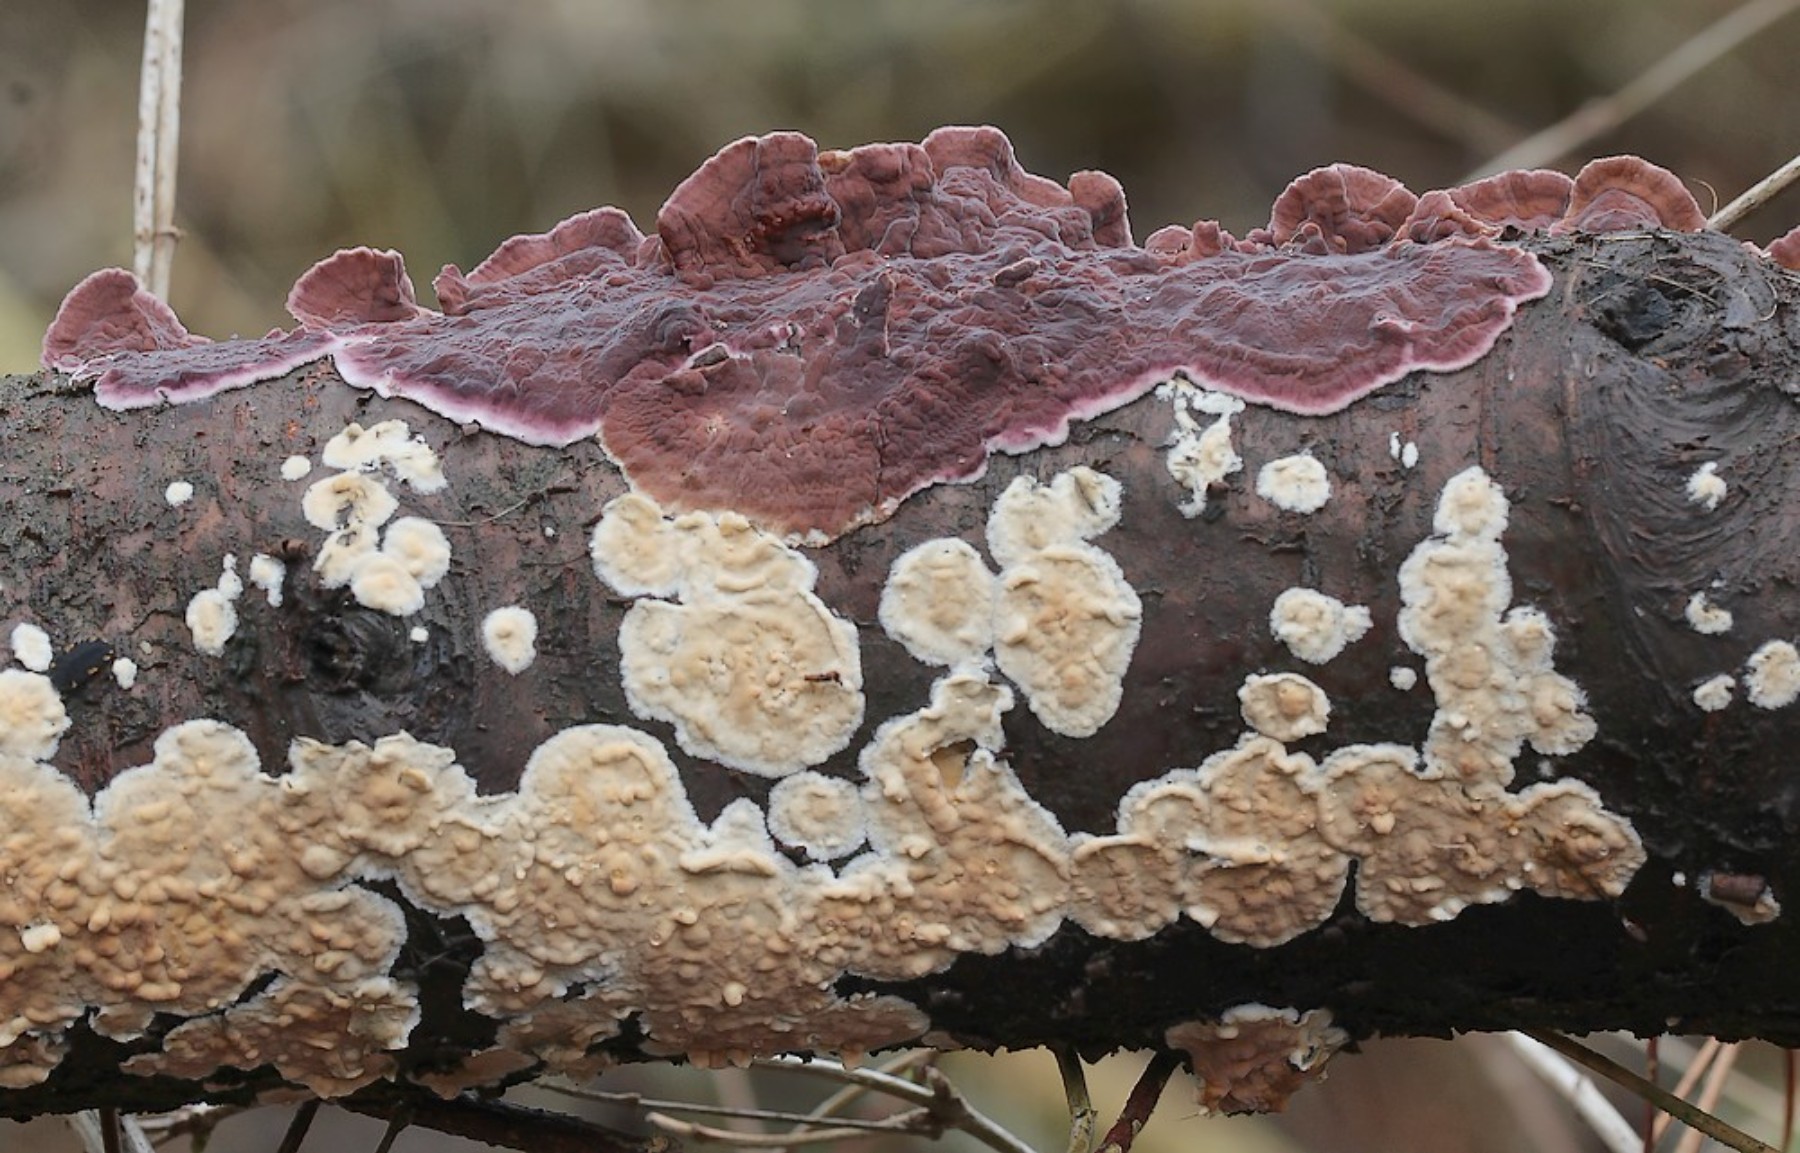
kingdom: Fungi
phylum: Basidiomycota
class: Agaricomycetes
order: Agaricales
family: Cyphellaceae
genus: Chondrostereum
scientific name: Chondrostereum purpureum
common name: purpurlædersvamp
